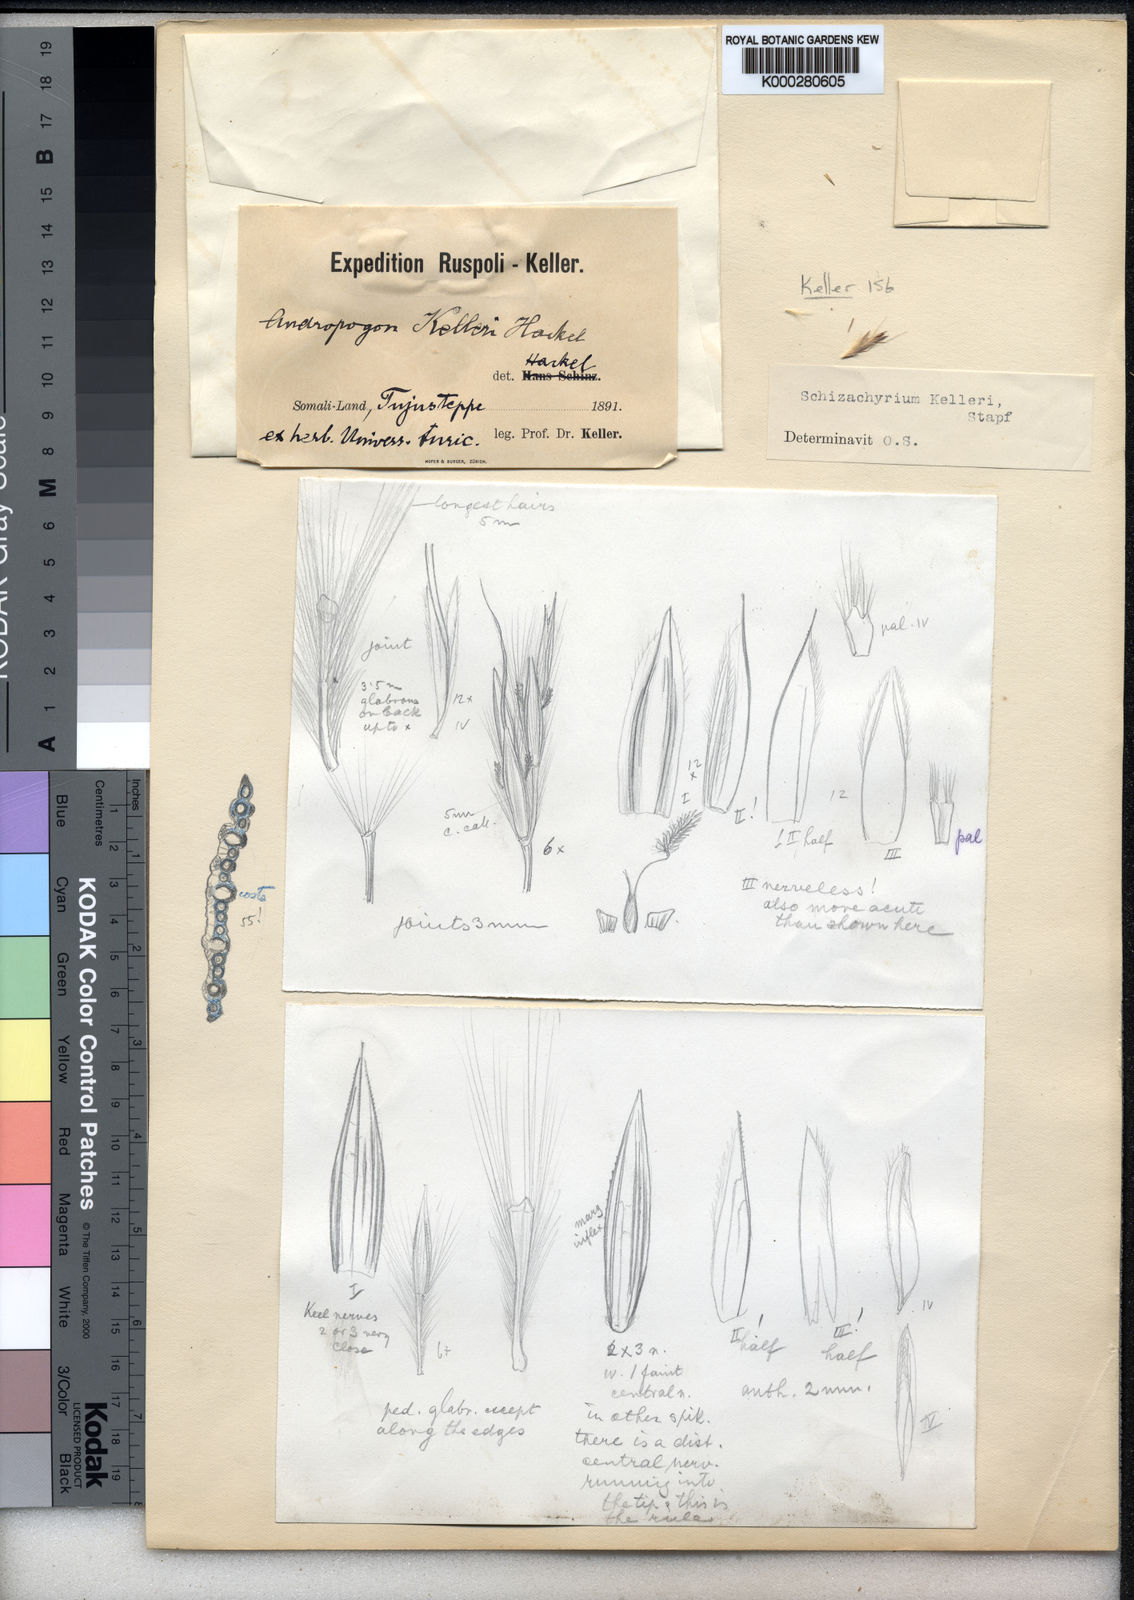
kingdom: Plantae
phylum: Tracheophyta
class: Liliopsida
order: Poales
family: Poaceae
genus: Andropogon
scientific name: Andropogon kelleri
